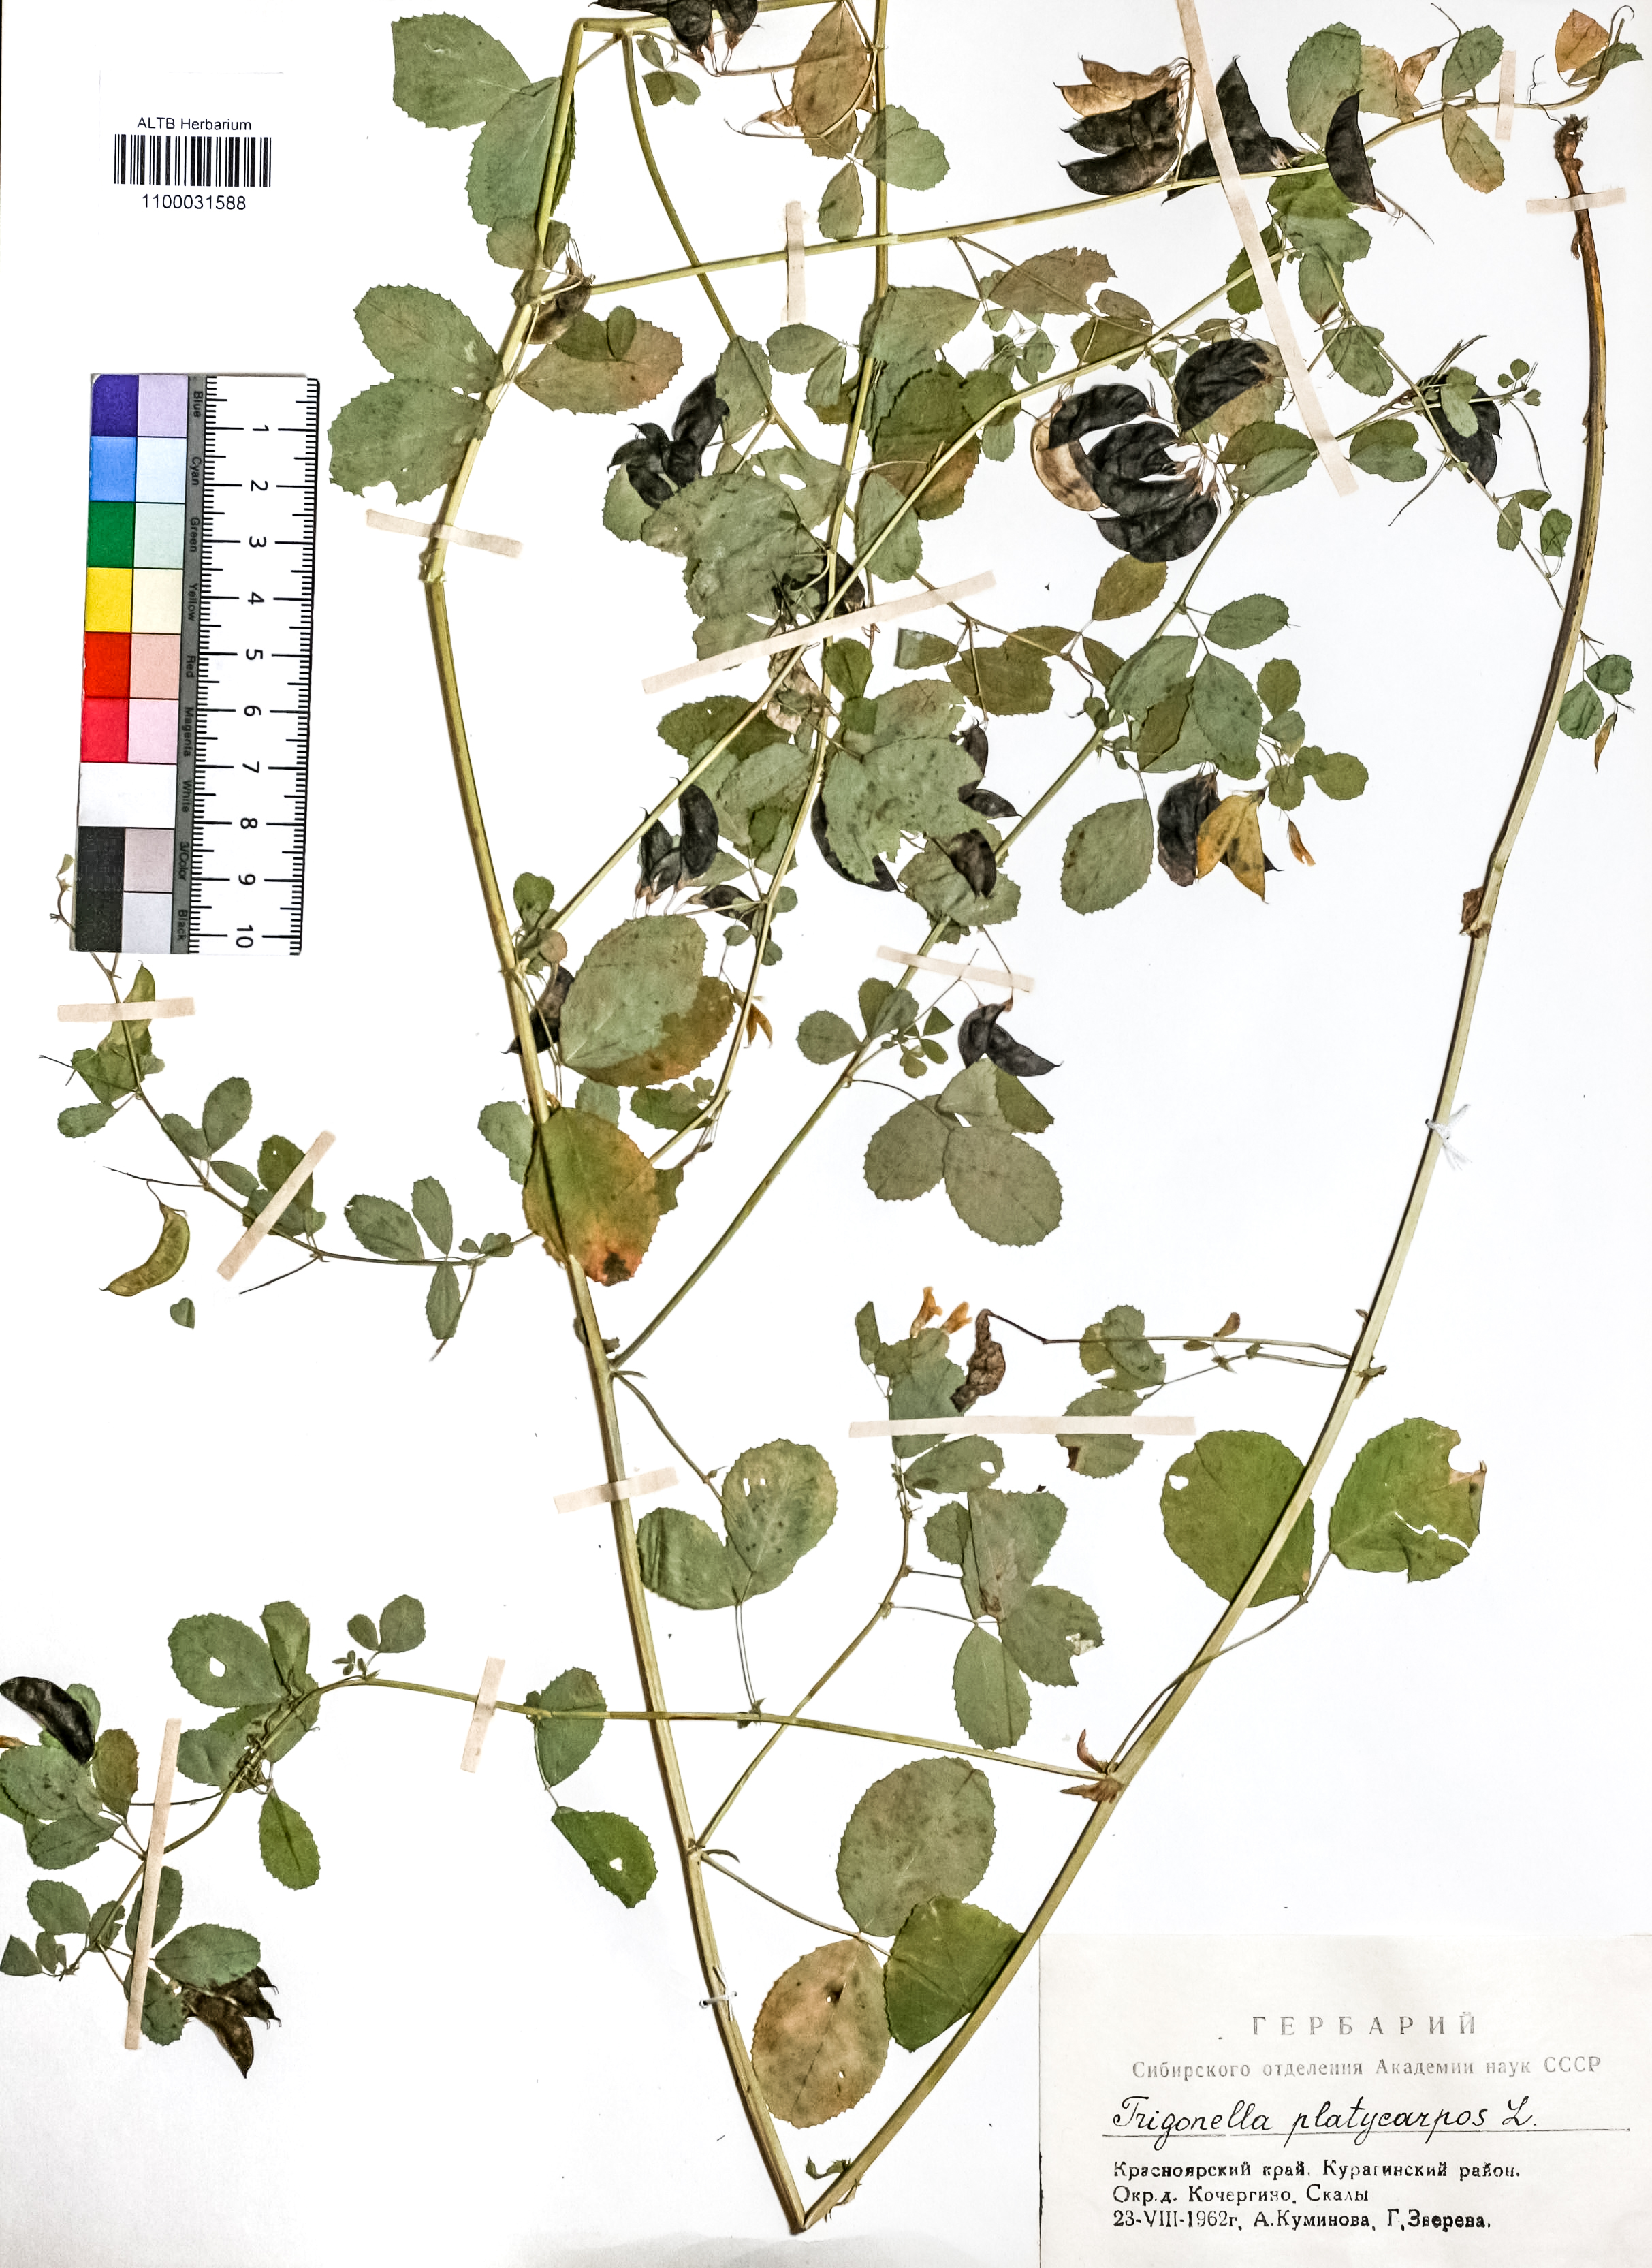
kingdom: Plantae
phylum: Tracheophyta
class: Magnoliopsida
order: Fabales
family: Fabaceae
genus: Medicago
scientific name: Medicago platycarpos
